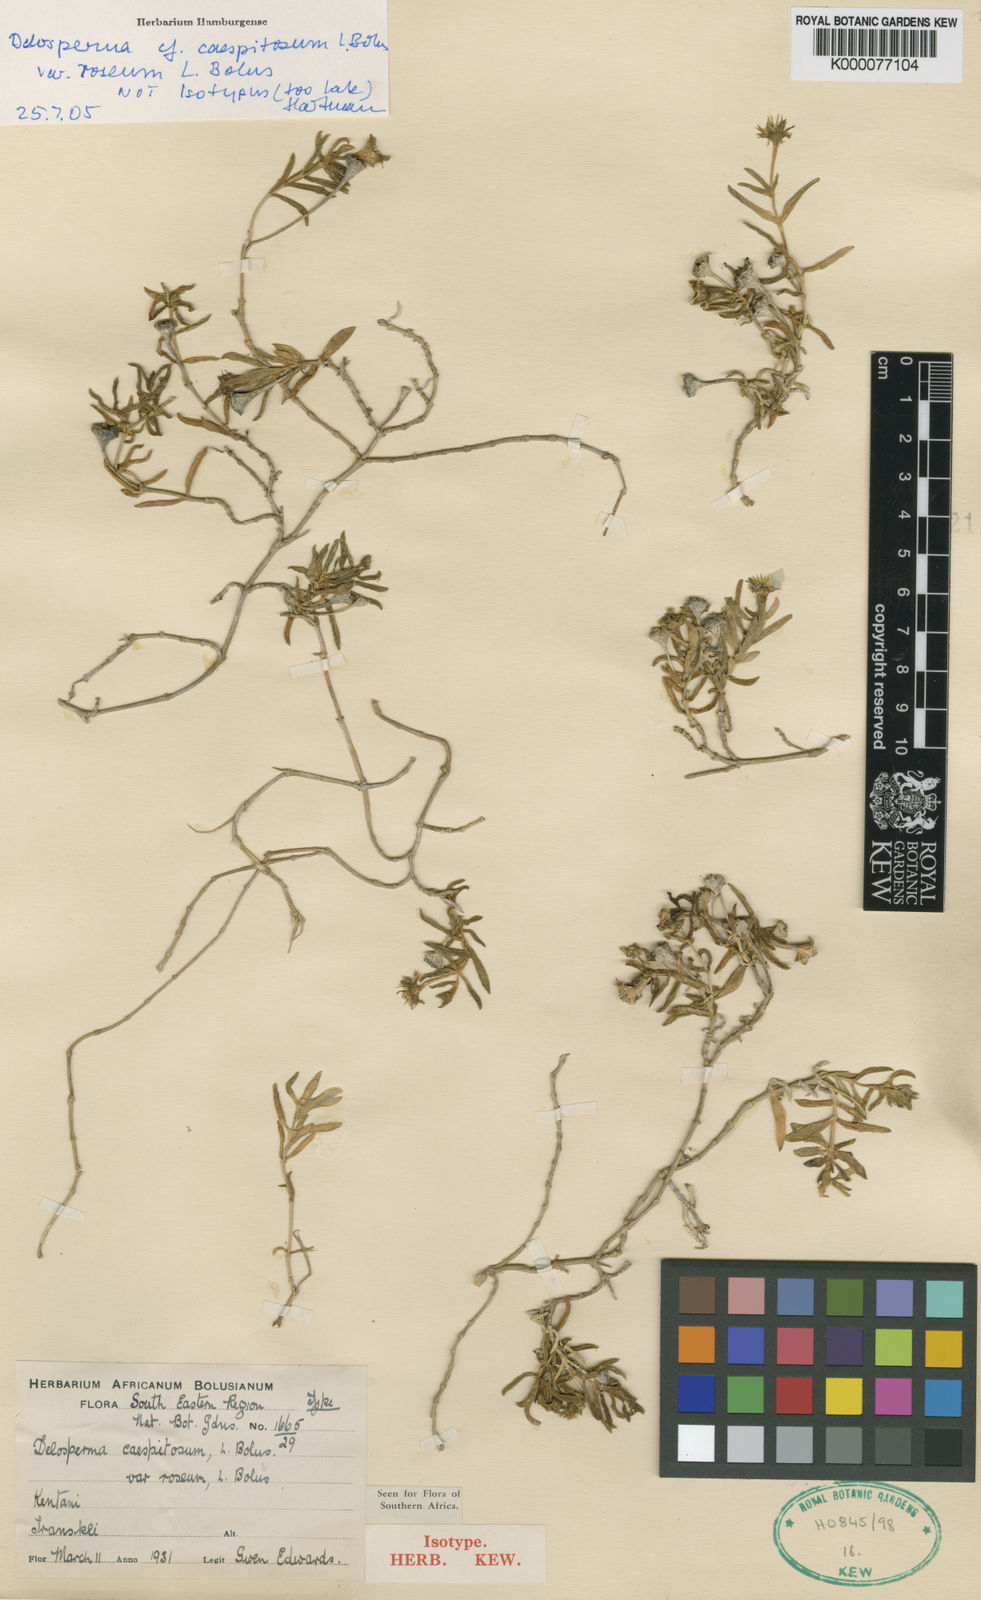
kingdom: Plantae
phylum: Tracheophyta
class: Magnoliopsida
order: Caryophyllales
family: Aizoaceae
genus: Delosperma
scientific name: Delosperma caespitosum
